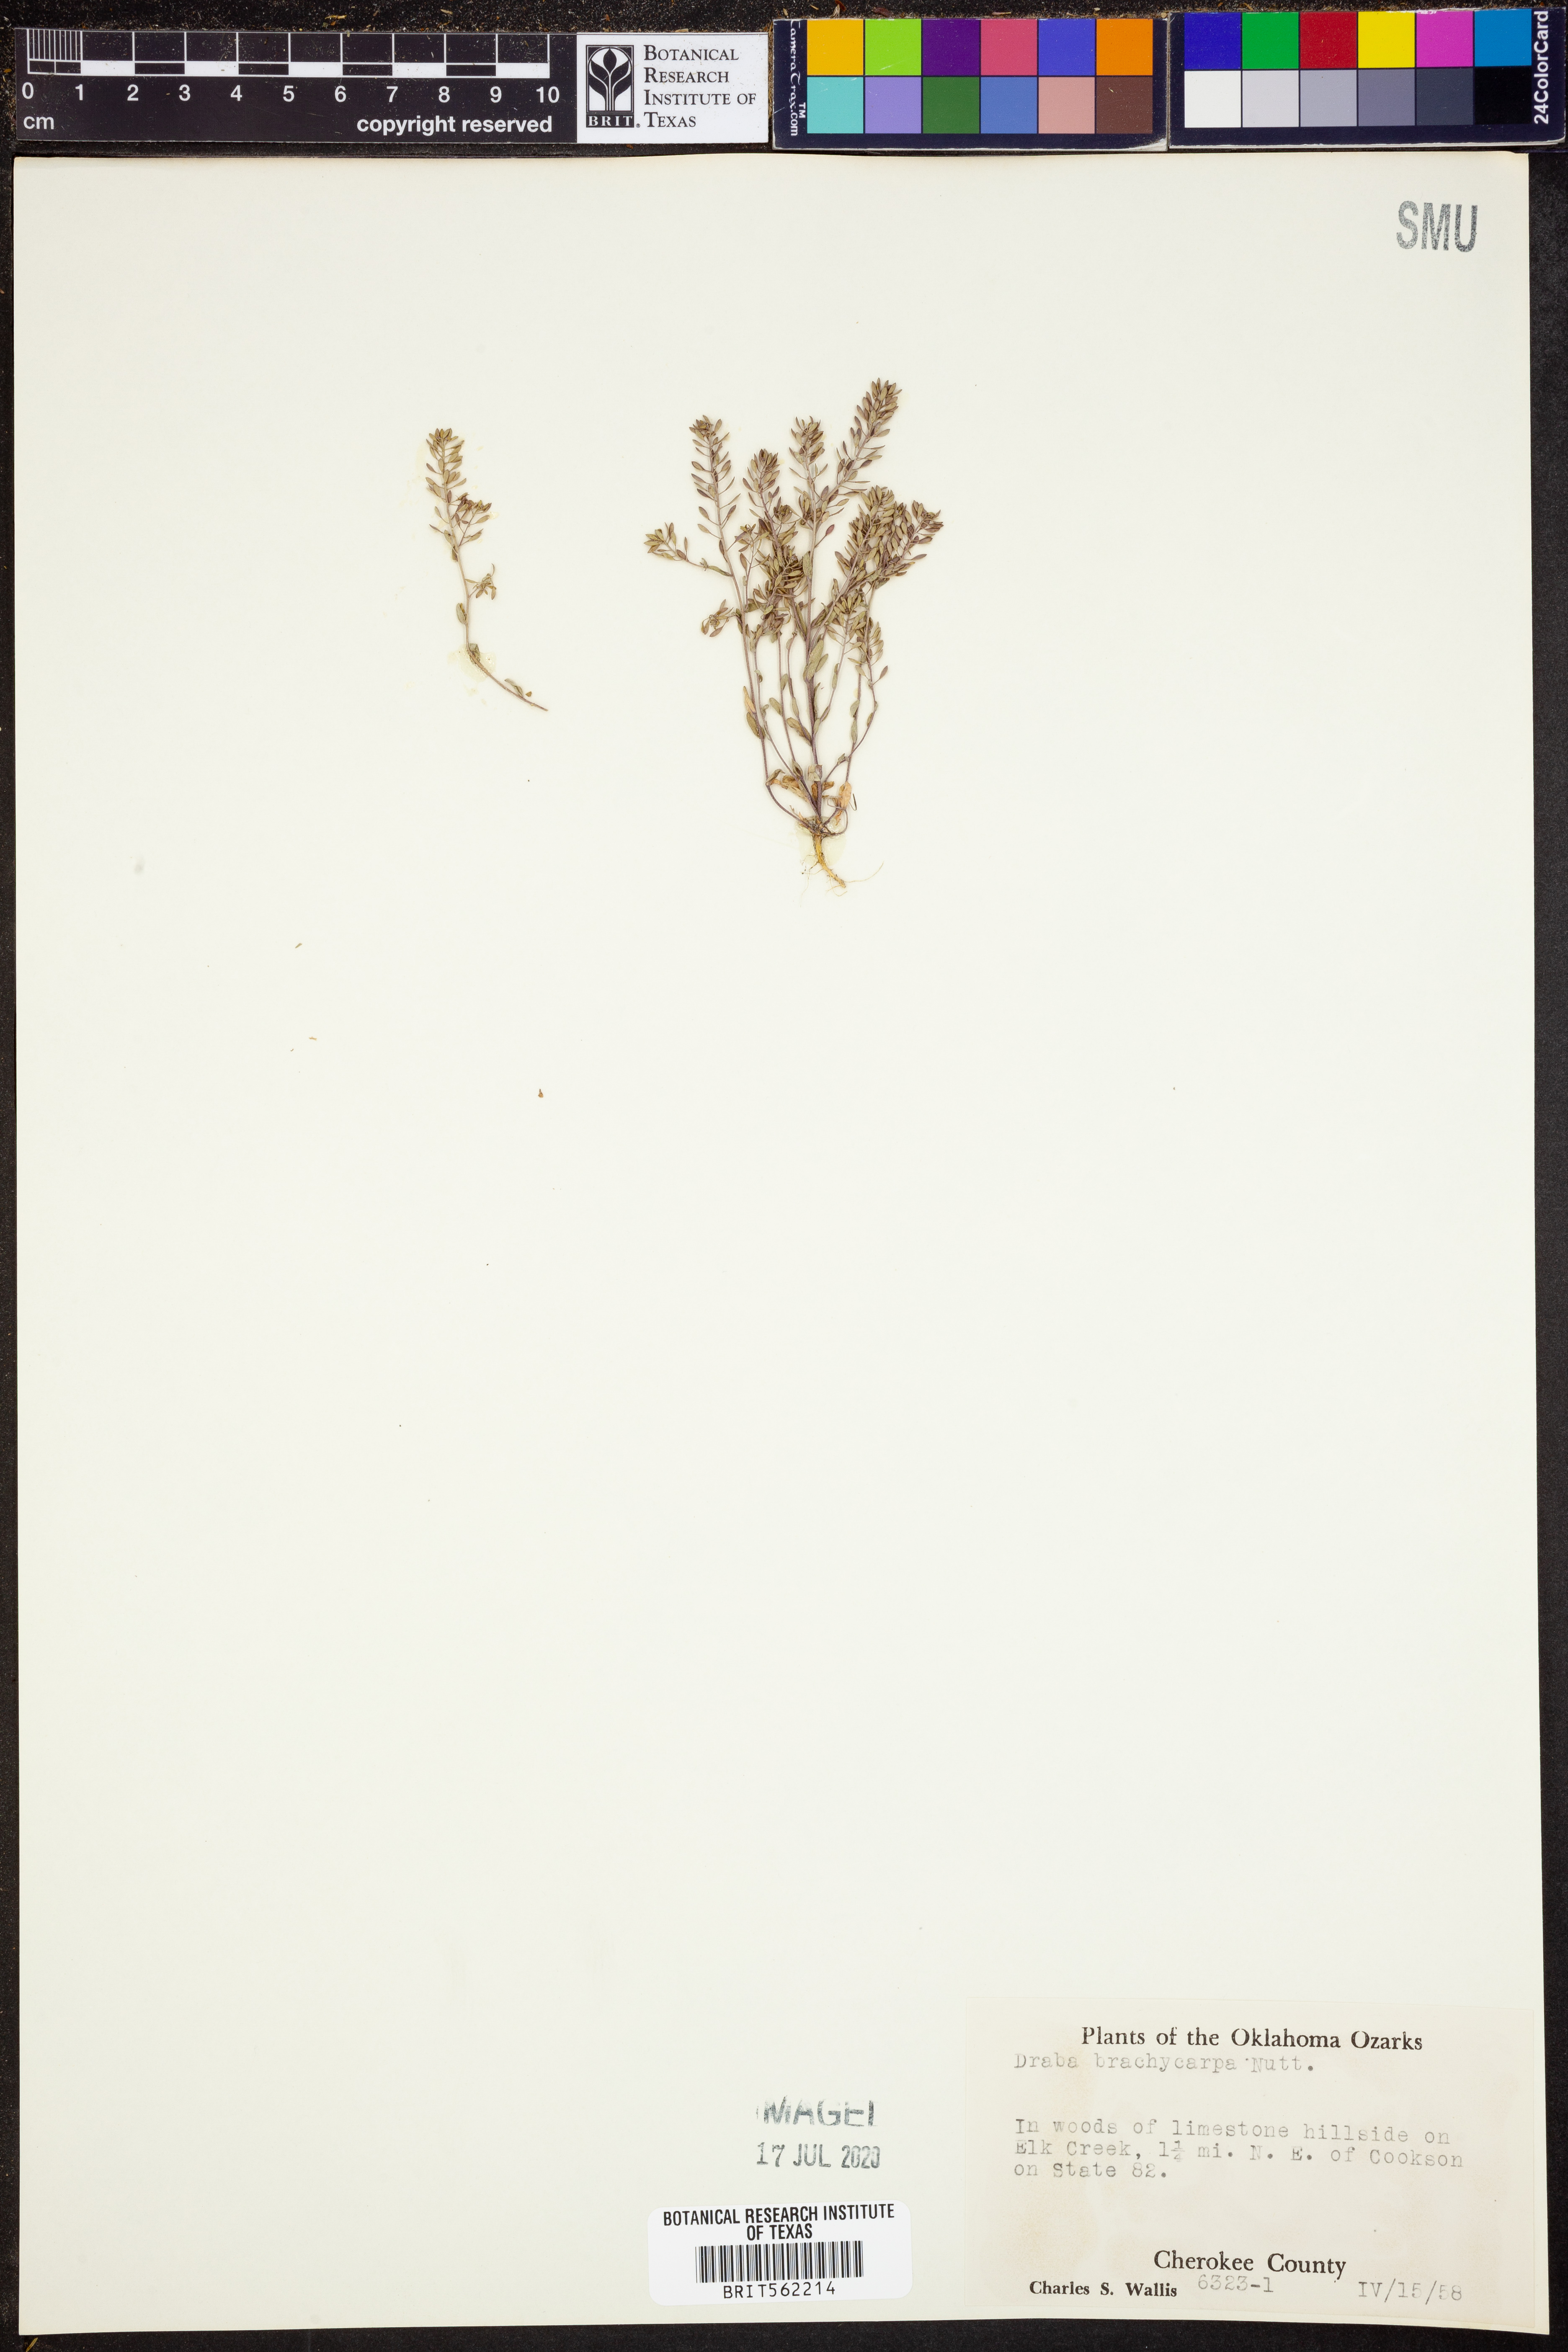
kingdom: Plantae
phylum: Tracheophyta
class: Magnoliopsida
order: Brassicales
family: Brassicaceae
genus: Abdra
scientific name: Abdra brachycarpa
